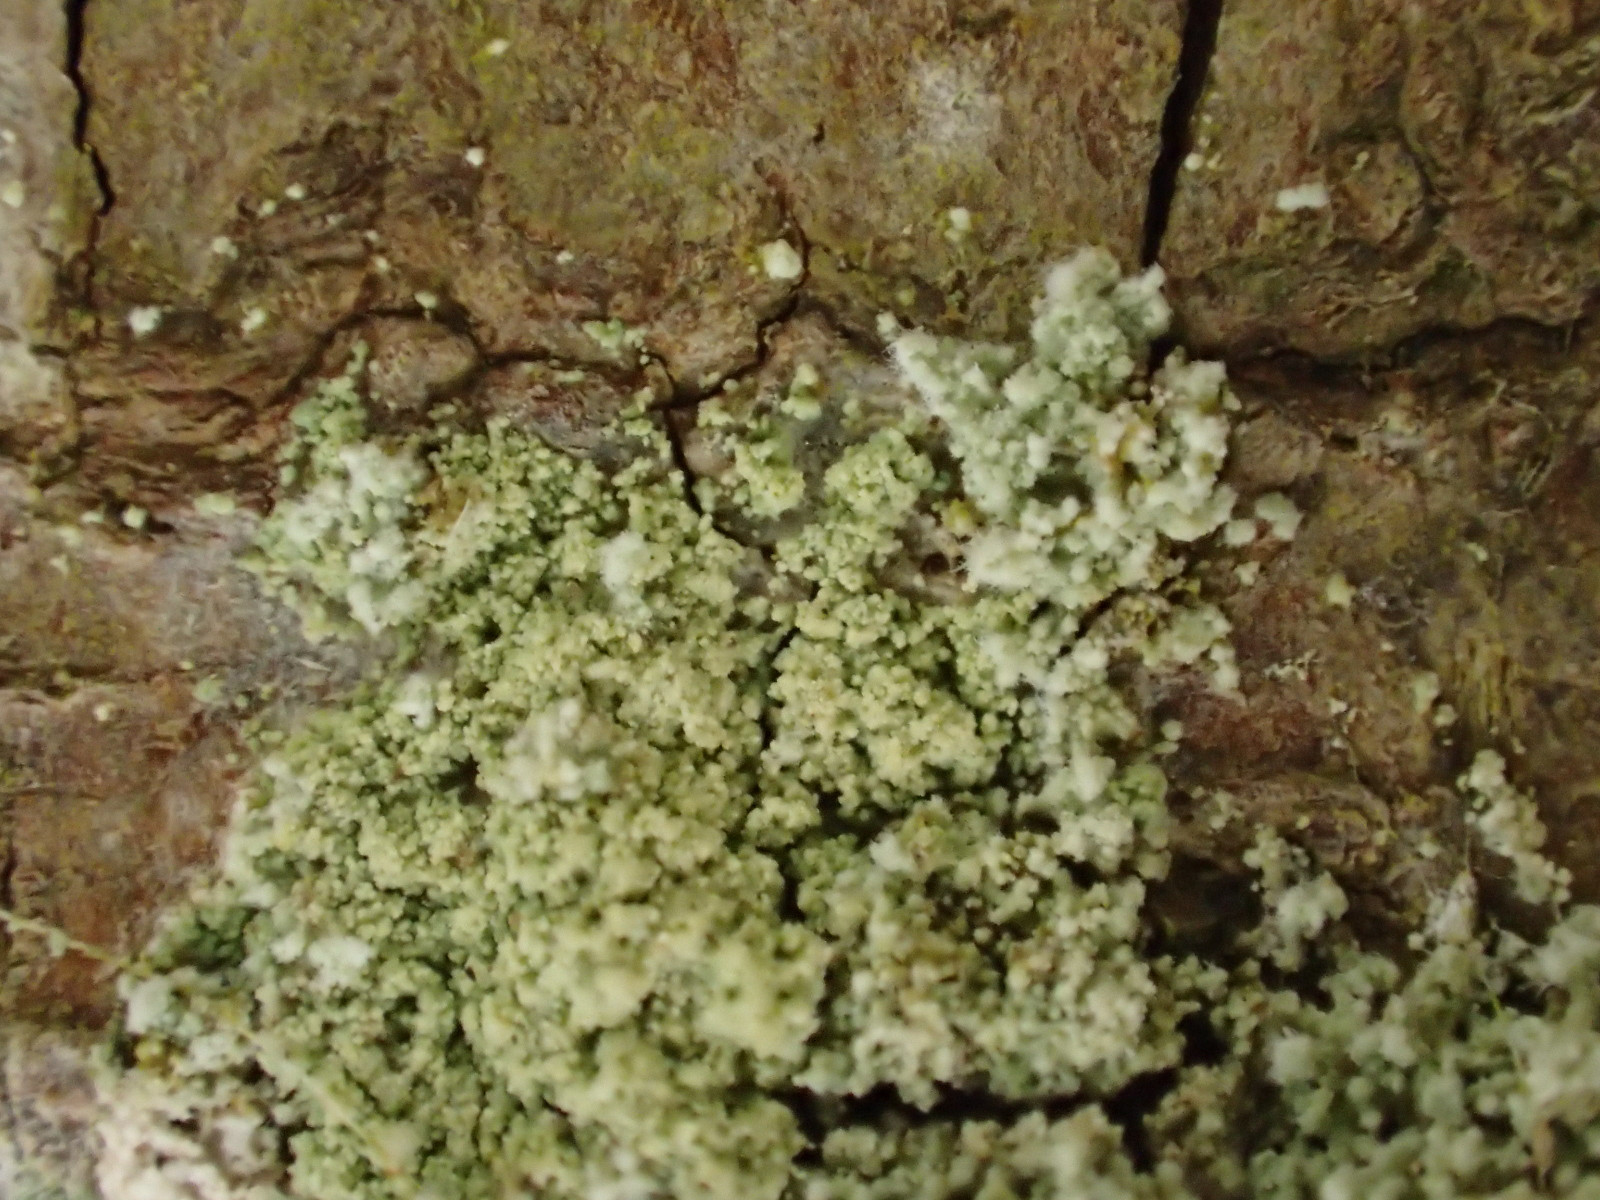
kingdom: Fungi
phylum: Ascomycota
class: Lecanoromycetes
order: Lecanorales
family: Stereocaulaceae
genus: Lepraria
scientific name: Lepraria lobificans
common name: grøn støvlav
